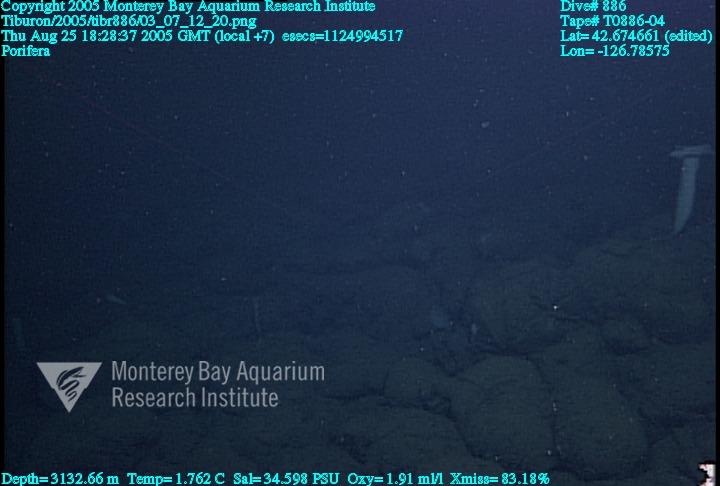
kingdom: Animalia
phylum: Porifera
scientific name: Porifera
